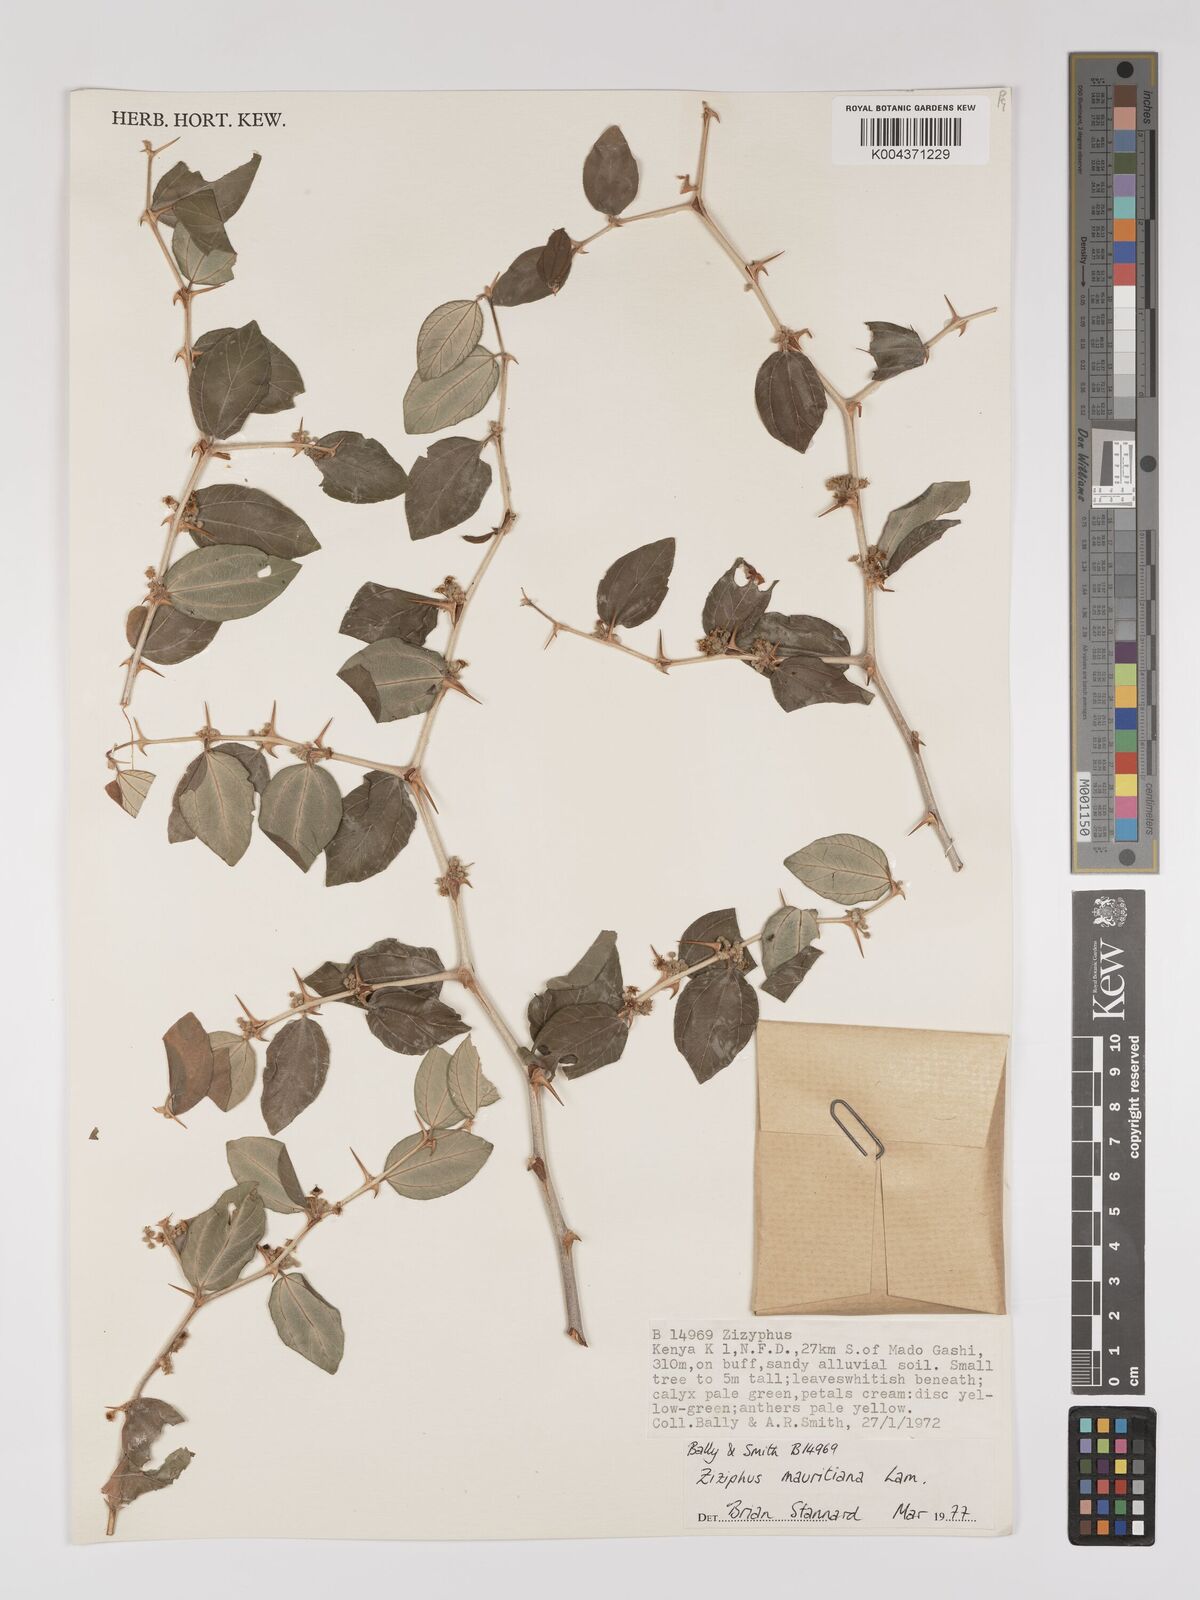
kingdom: Plantae
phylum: Tracheophyta
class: Magnoliopsida
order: Rosales
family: Rhamnaceae
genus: Ziziphus
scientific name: Ziziphus mauritiana
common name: Indian jujube
